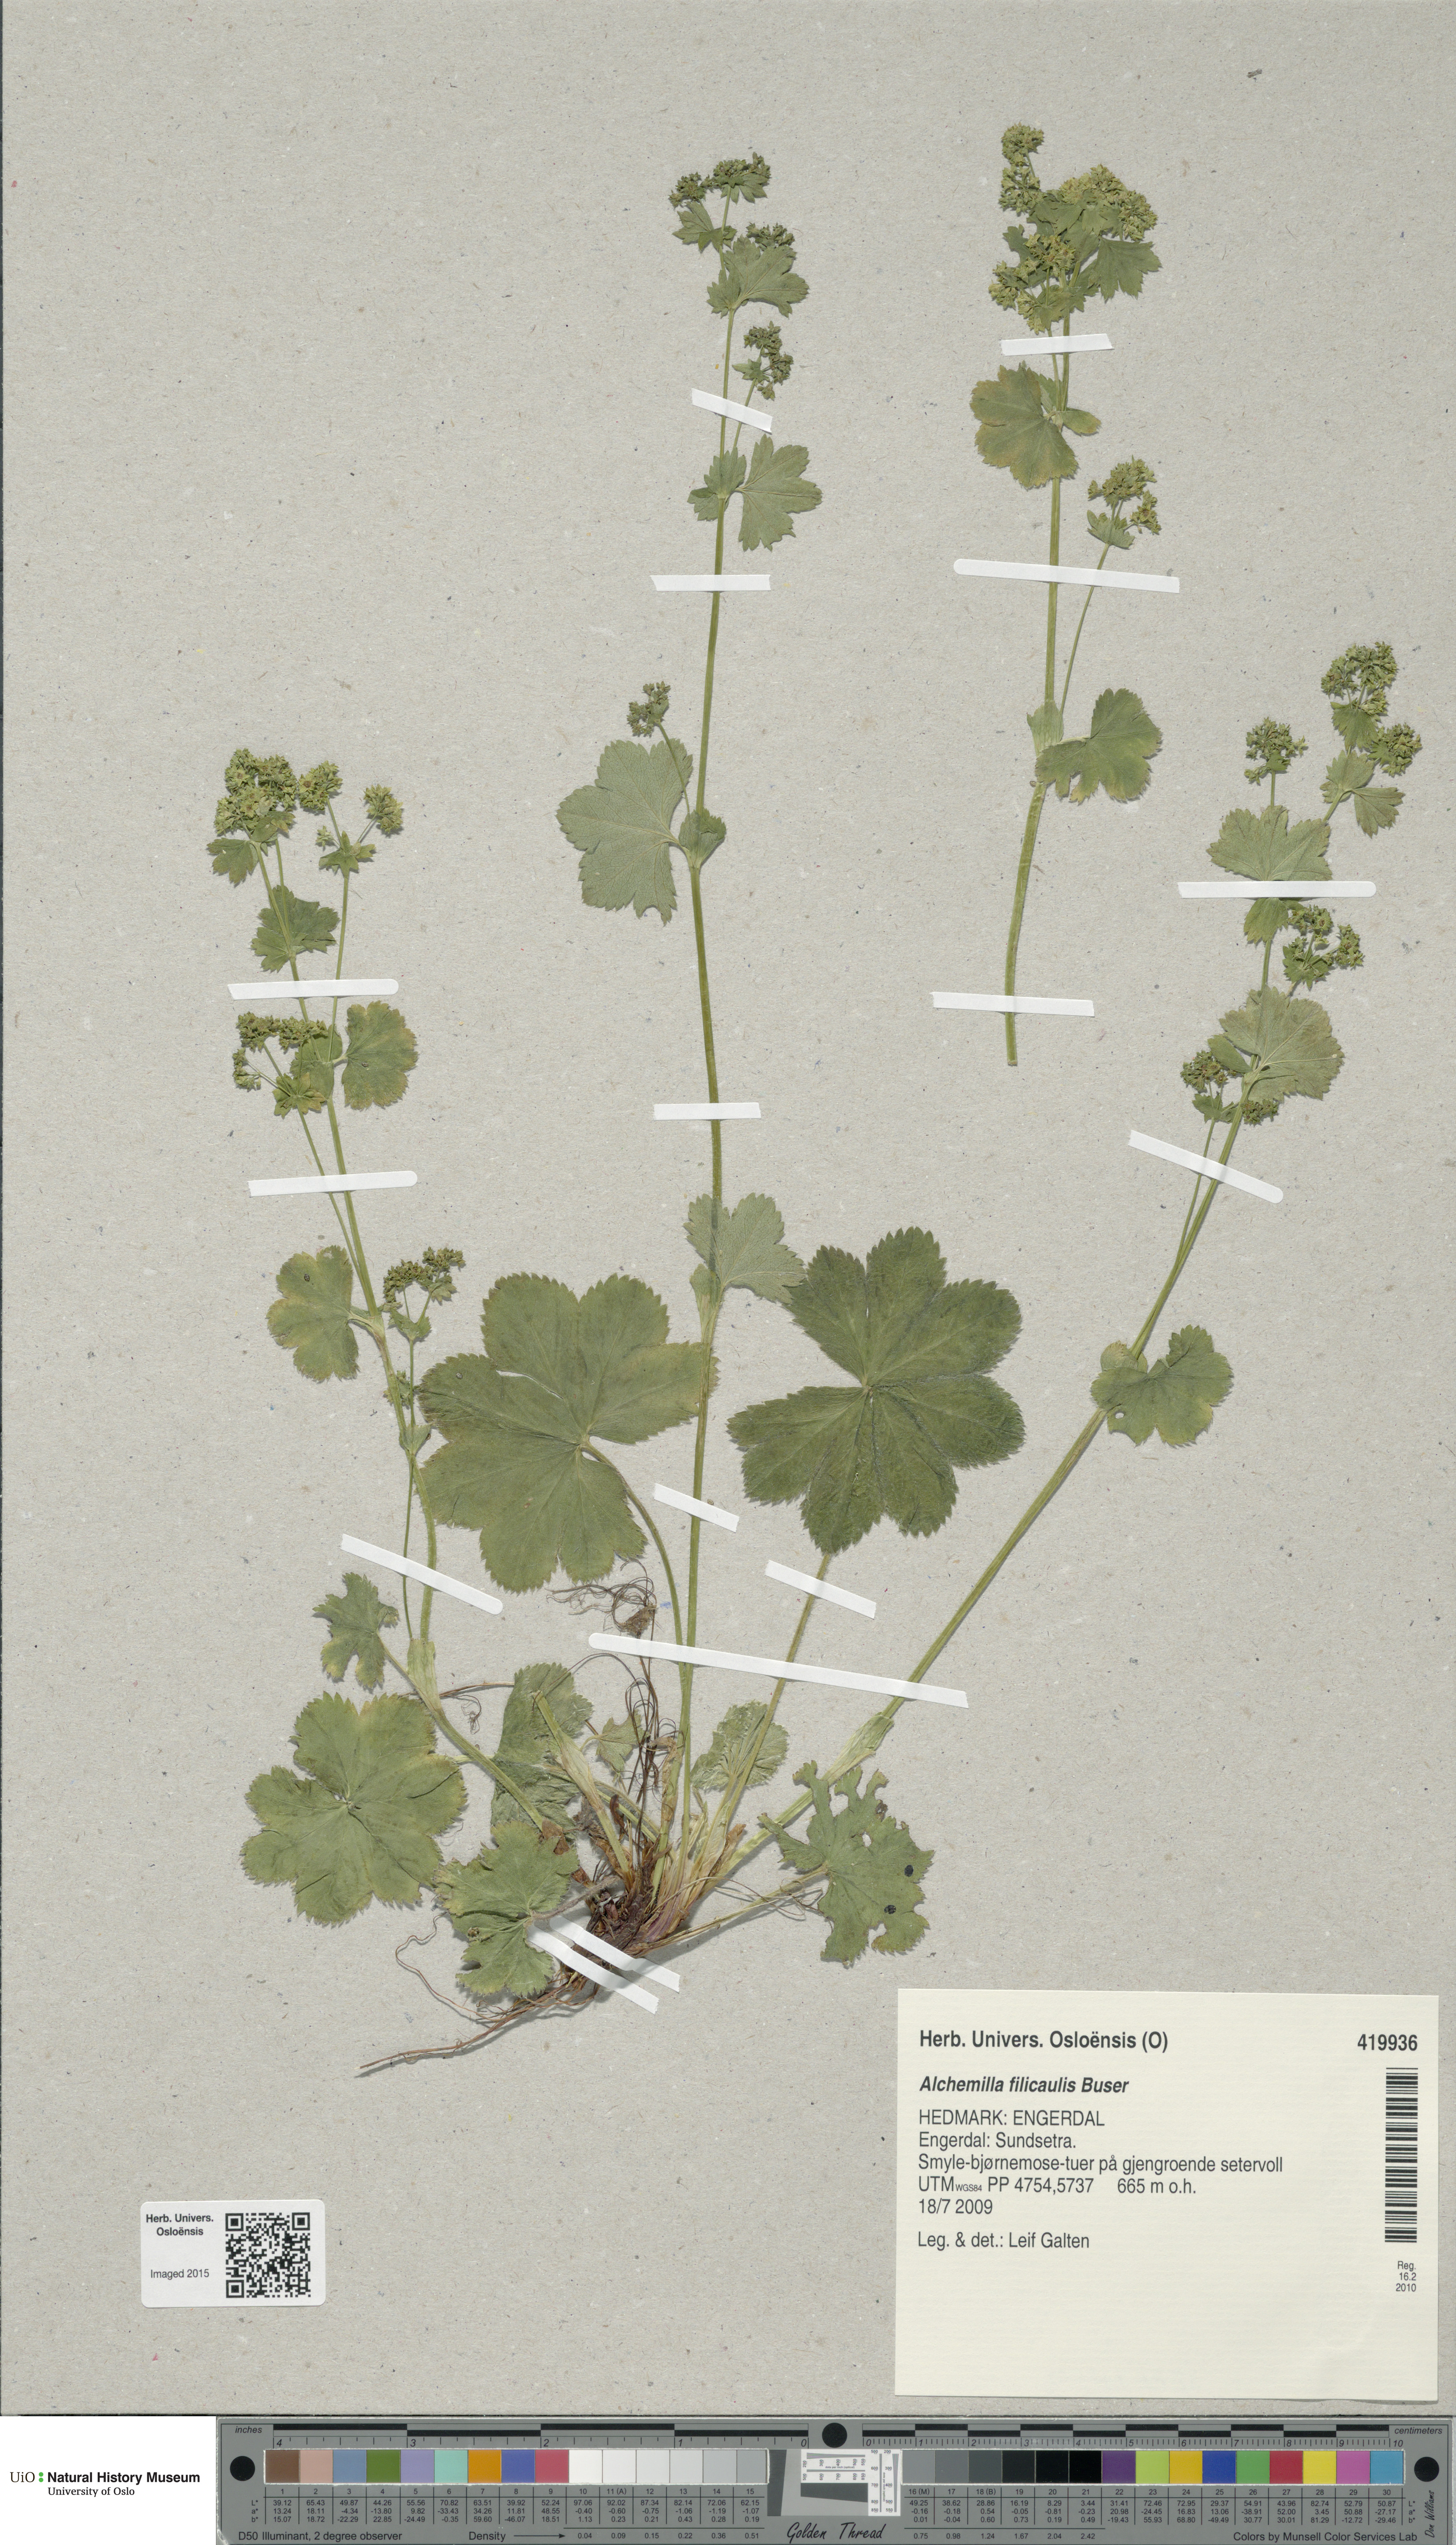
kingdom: Plantae
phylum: Tracheophyta
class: Magnoliopsida
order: Rosales
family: Rosaceae
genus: Alchemilla
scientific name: Alchemilla filicaulis
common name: Hairy lady's-mantle
